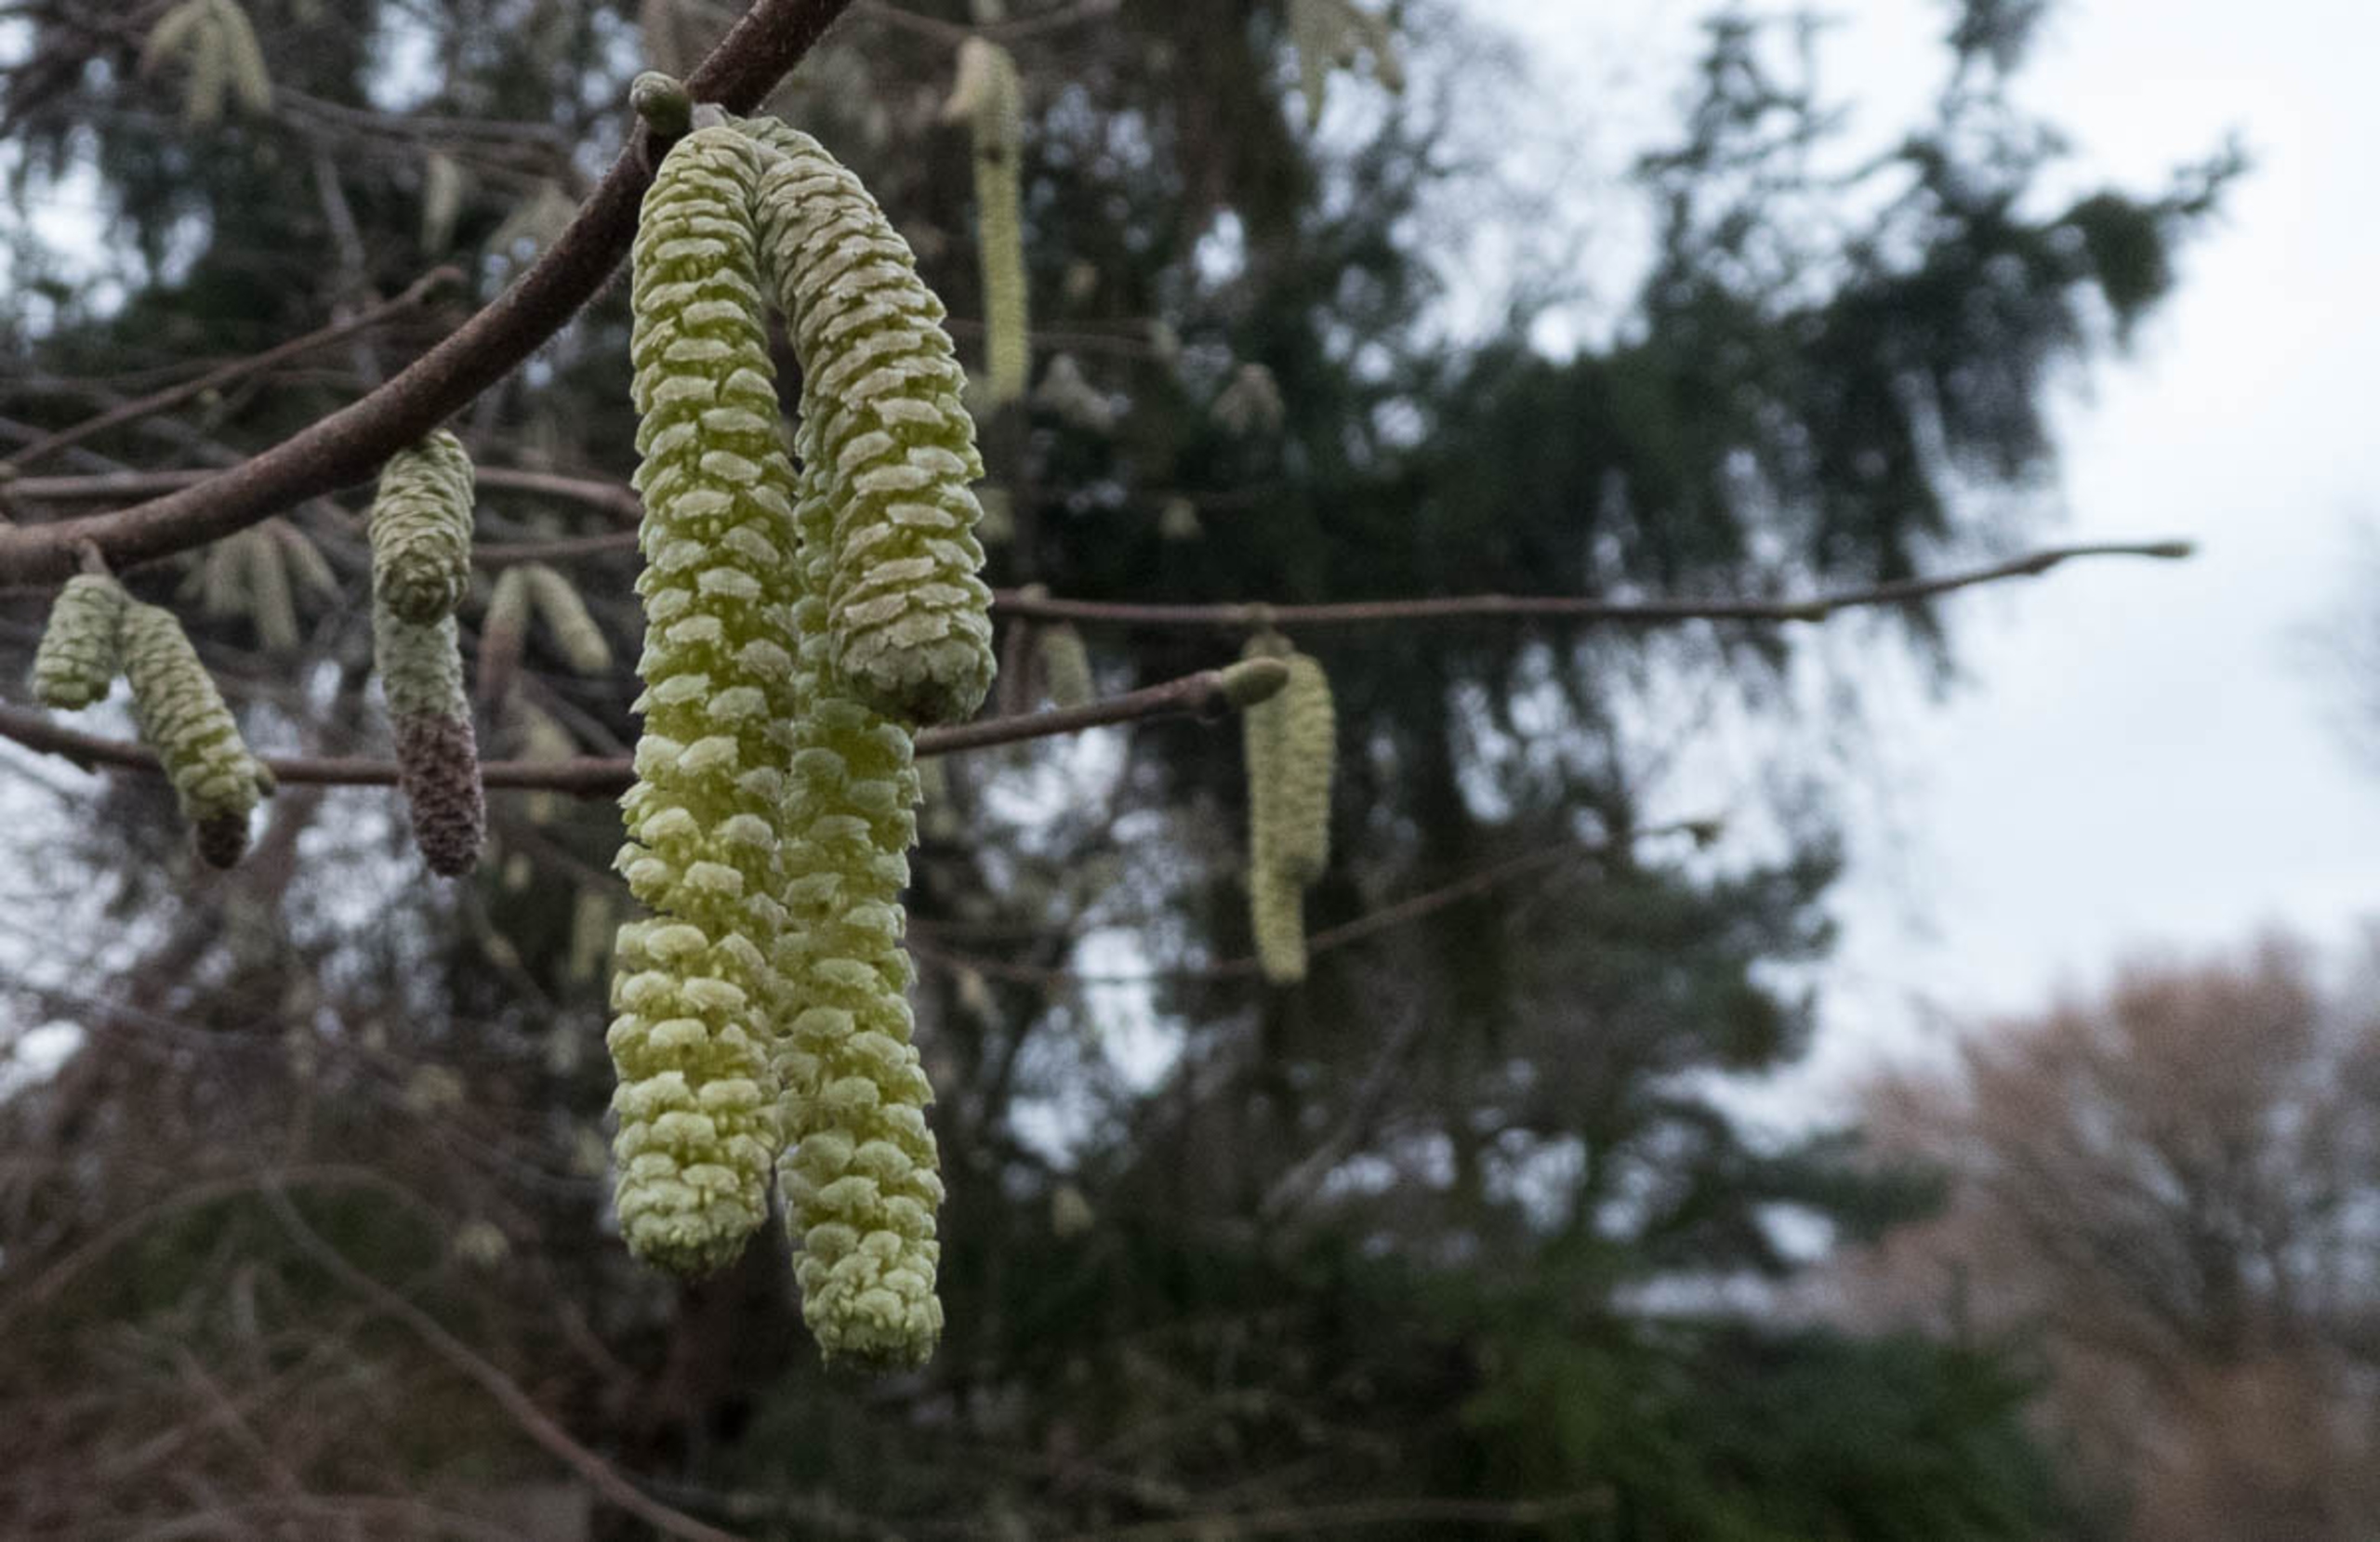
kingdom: Plantae
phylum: Tracheophyta
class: Magnoliopsida
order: Fagales
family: Betulaceae
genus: Corylus
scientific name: Corylus avellana
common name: Hassel
